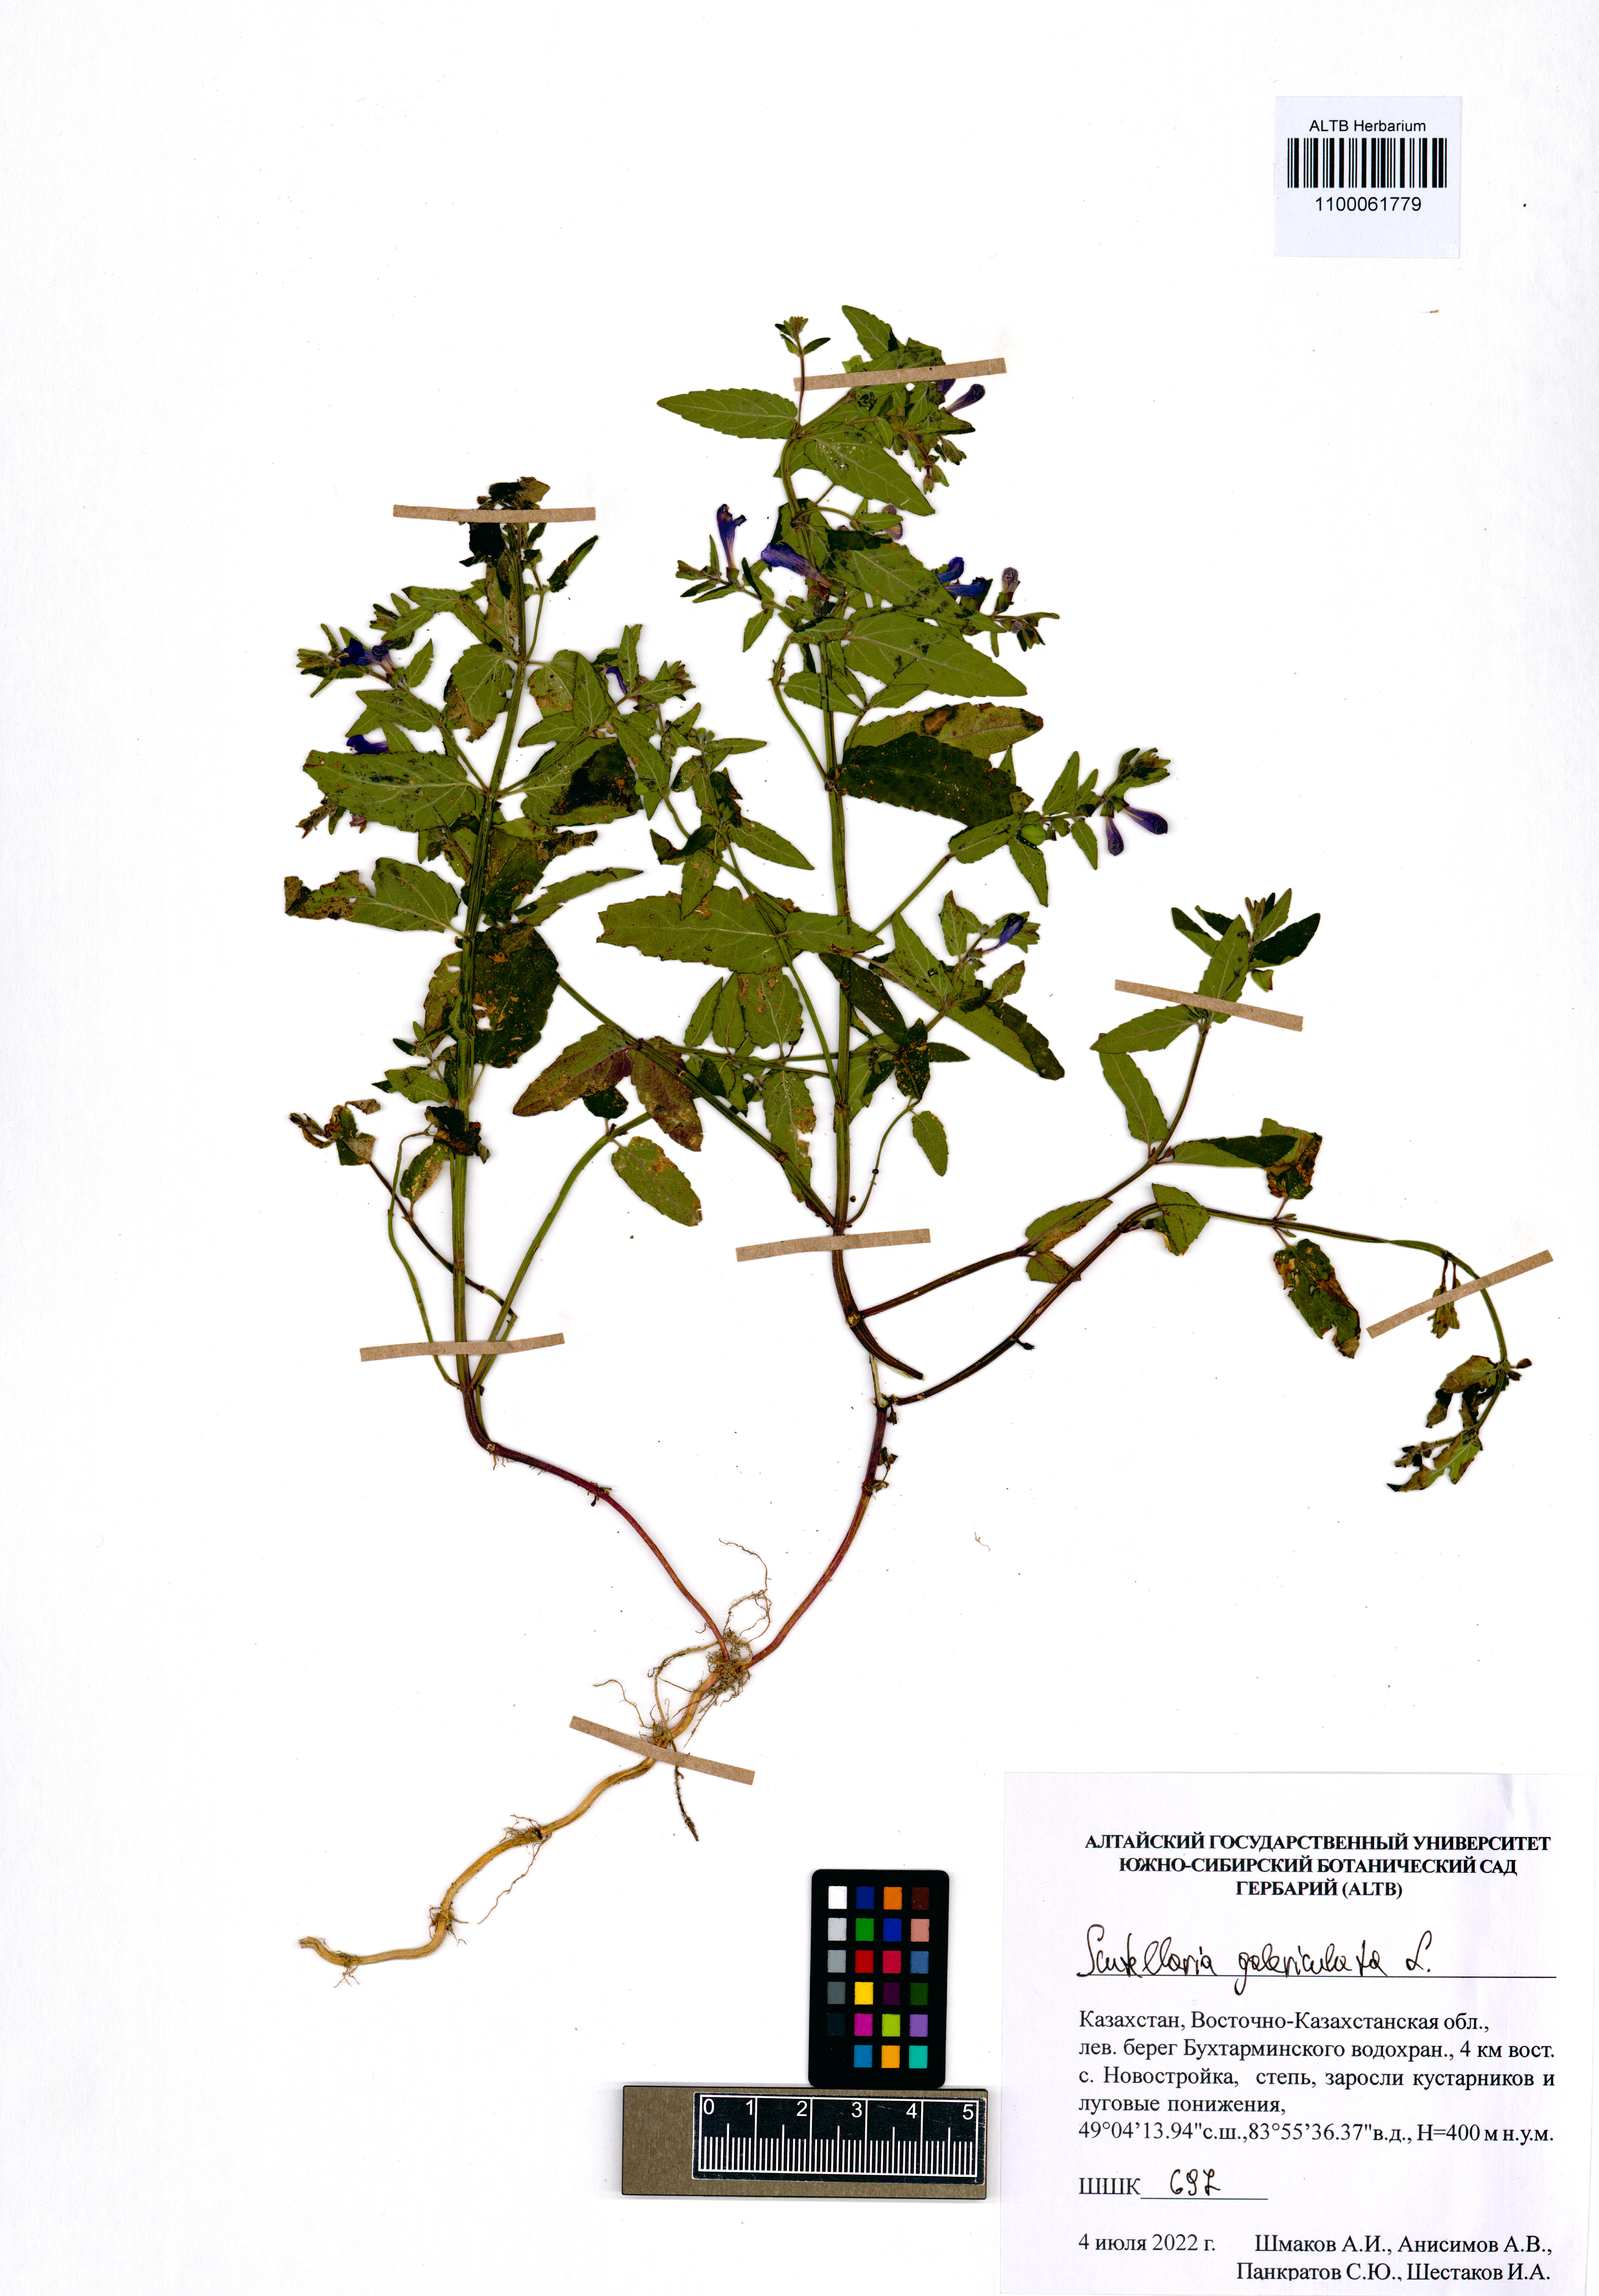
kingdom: Plantae
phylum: Tracheophyta
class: Magnoliopsida
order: Lamiales
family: Lamiaceae
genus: Scutellaria
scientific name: Scutellaria galericulata
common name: Skullcap
